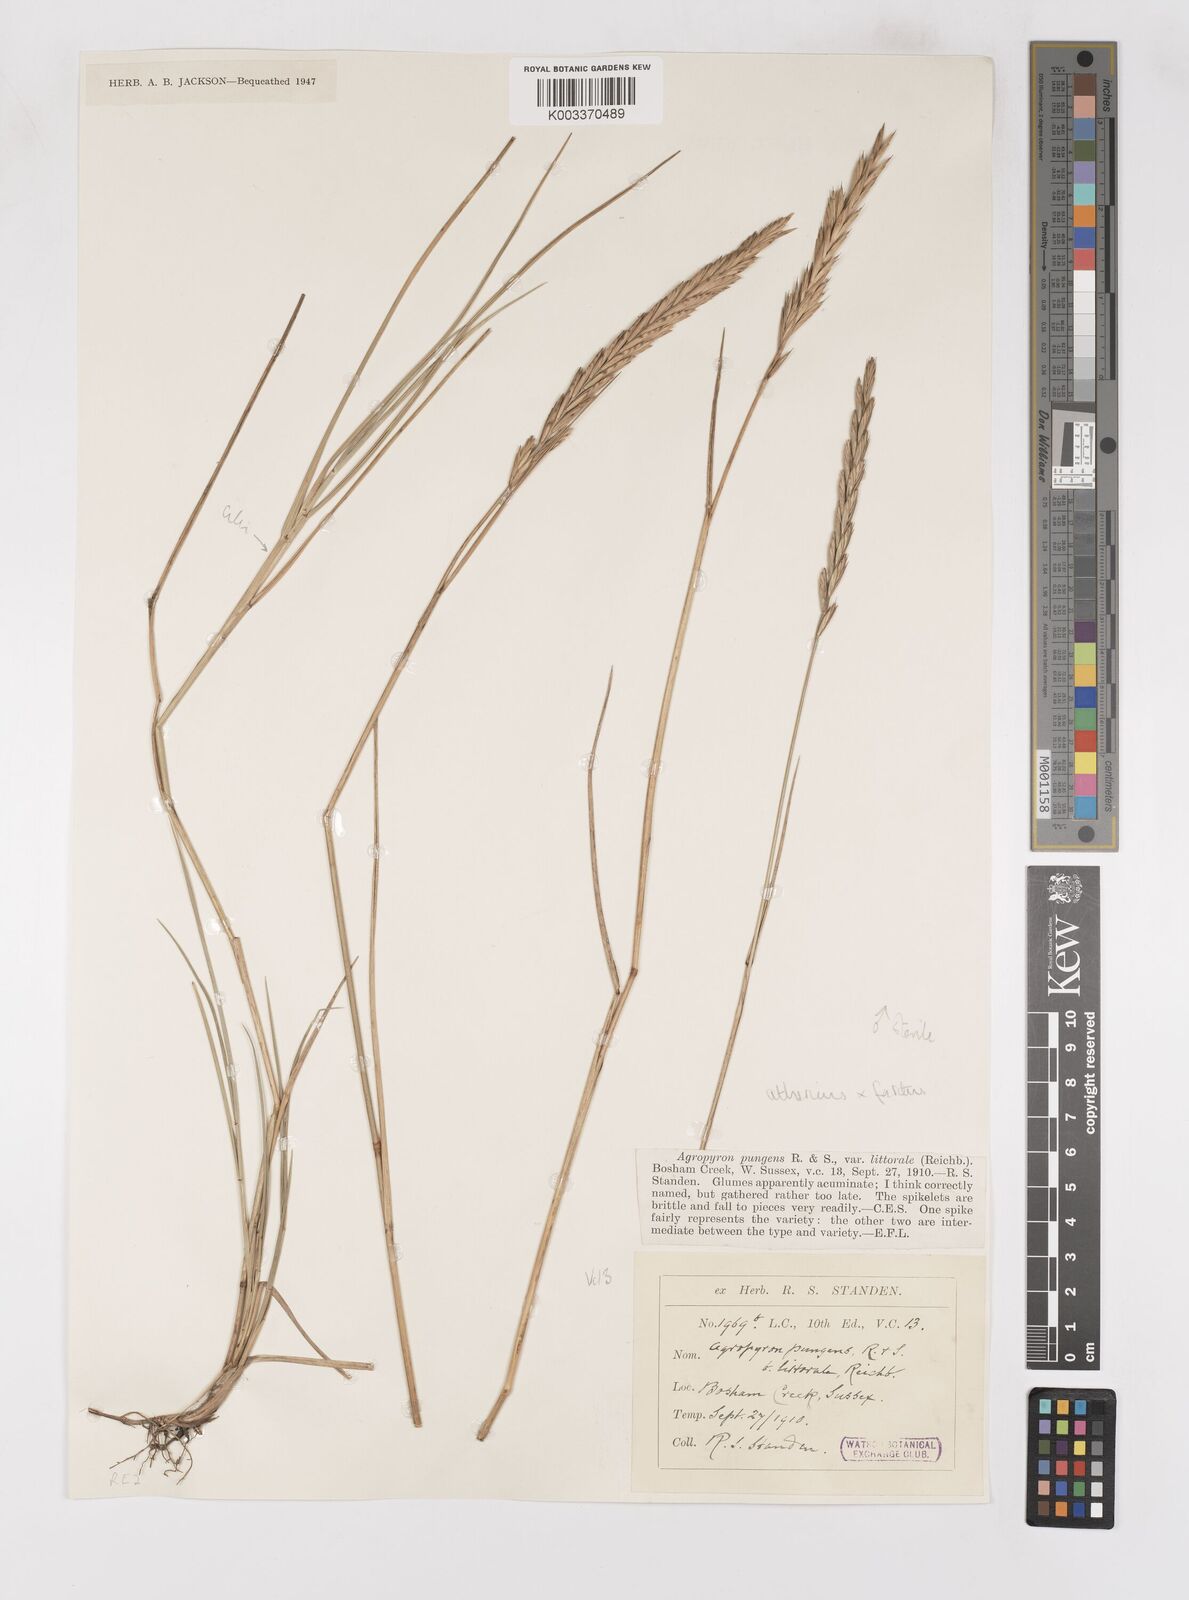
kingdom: Plantae
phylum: Tracheophyta
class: Liliopsida
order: Poales
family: Poaceae
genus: Thinoelymus
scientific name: Thinoelymus obtusiusculus
